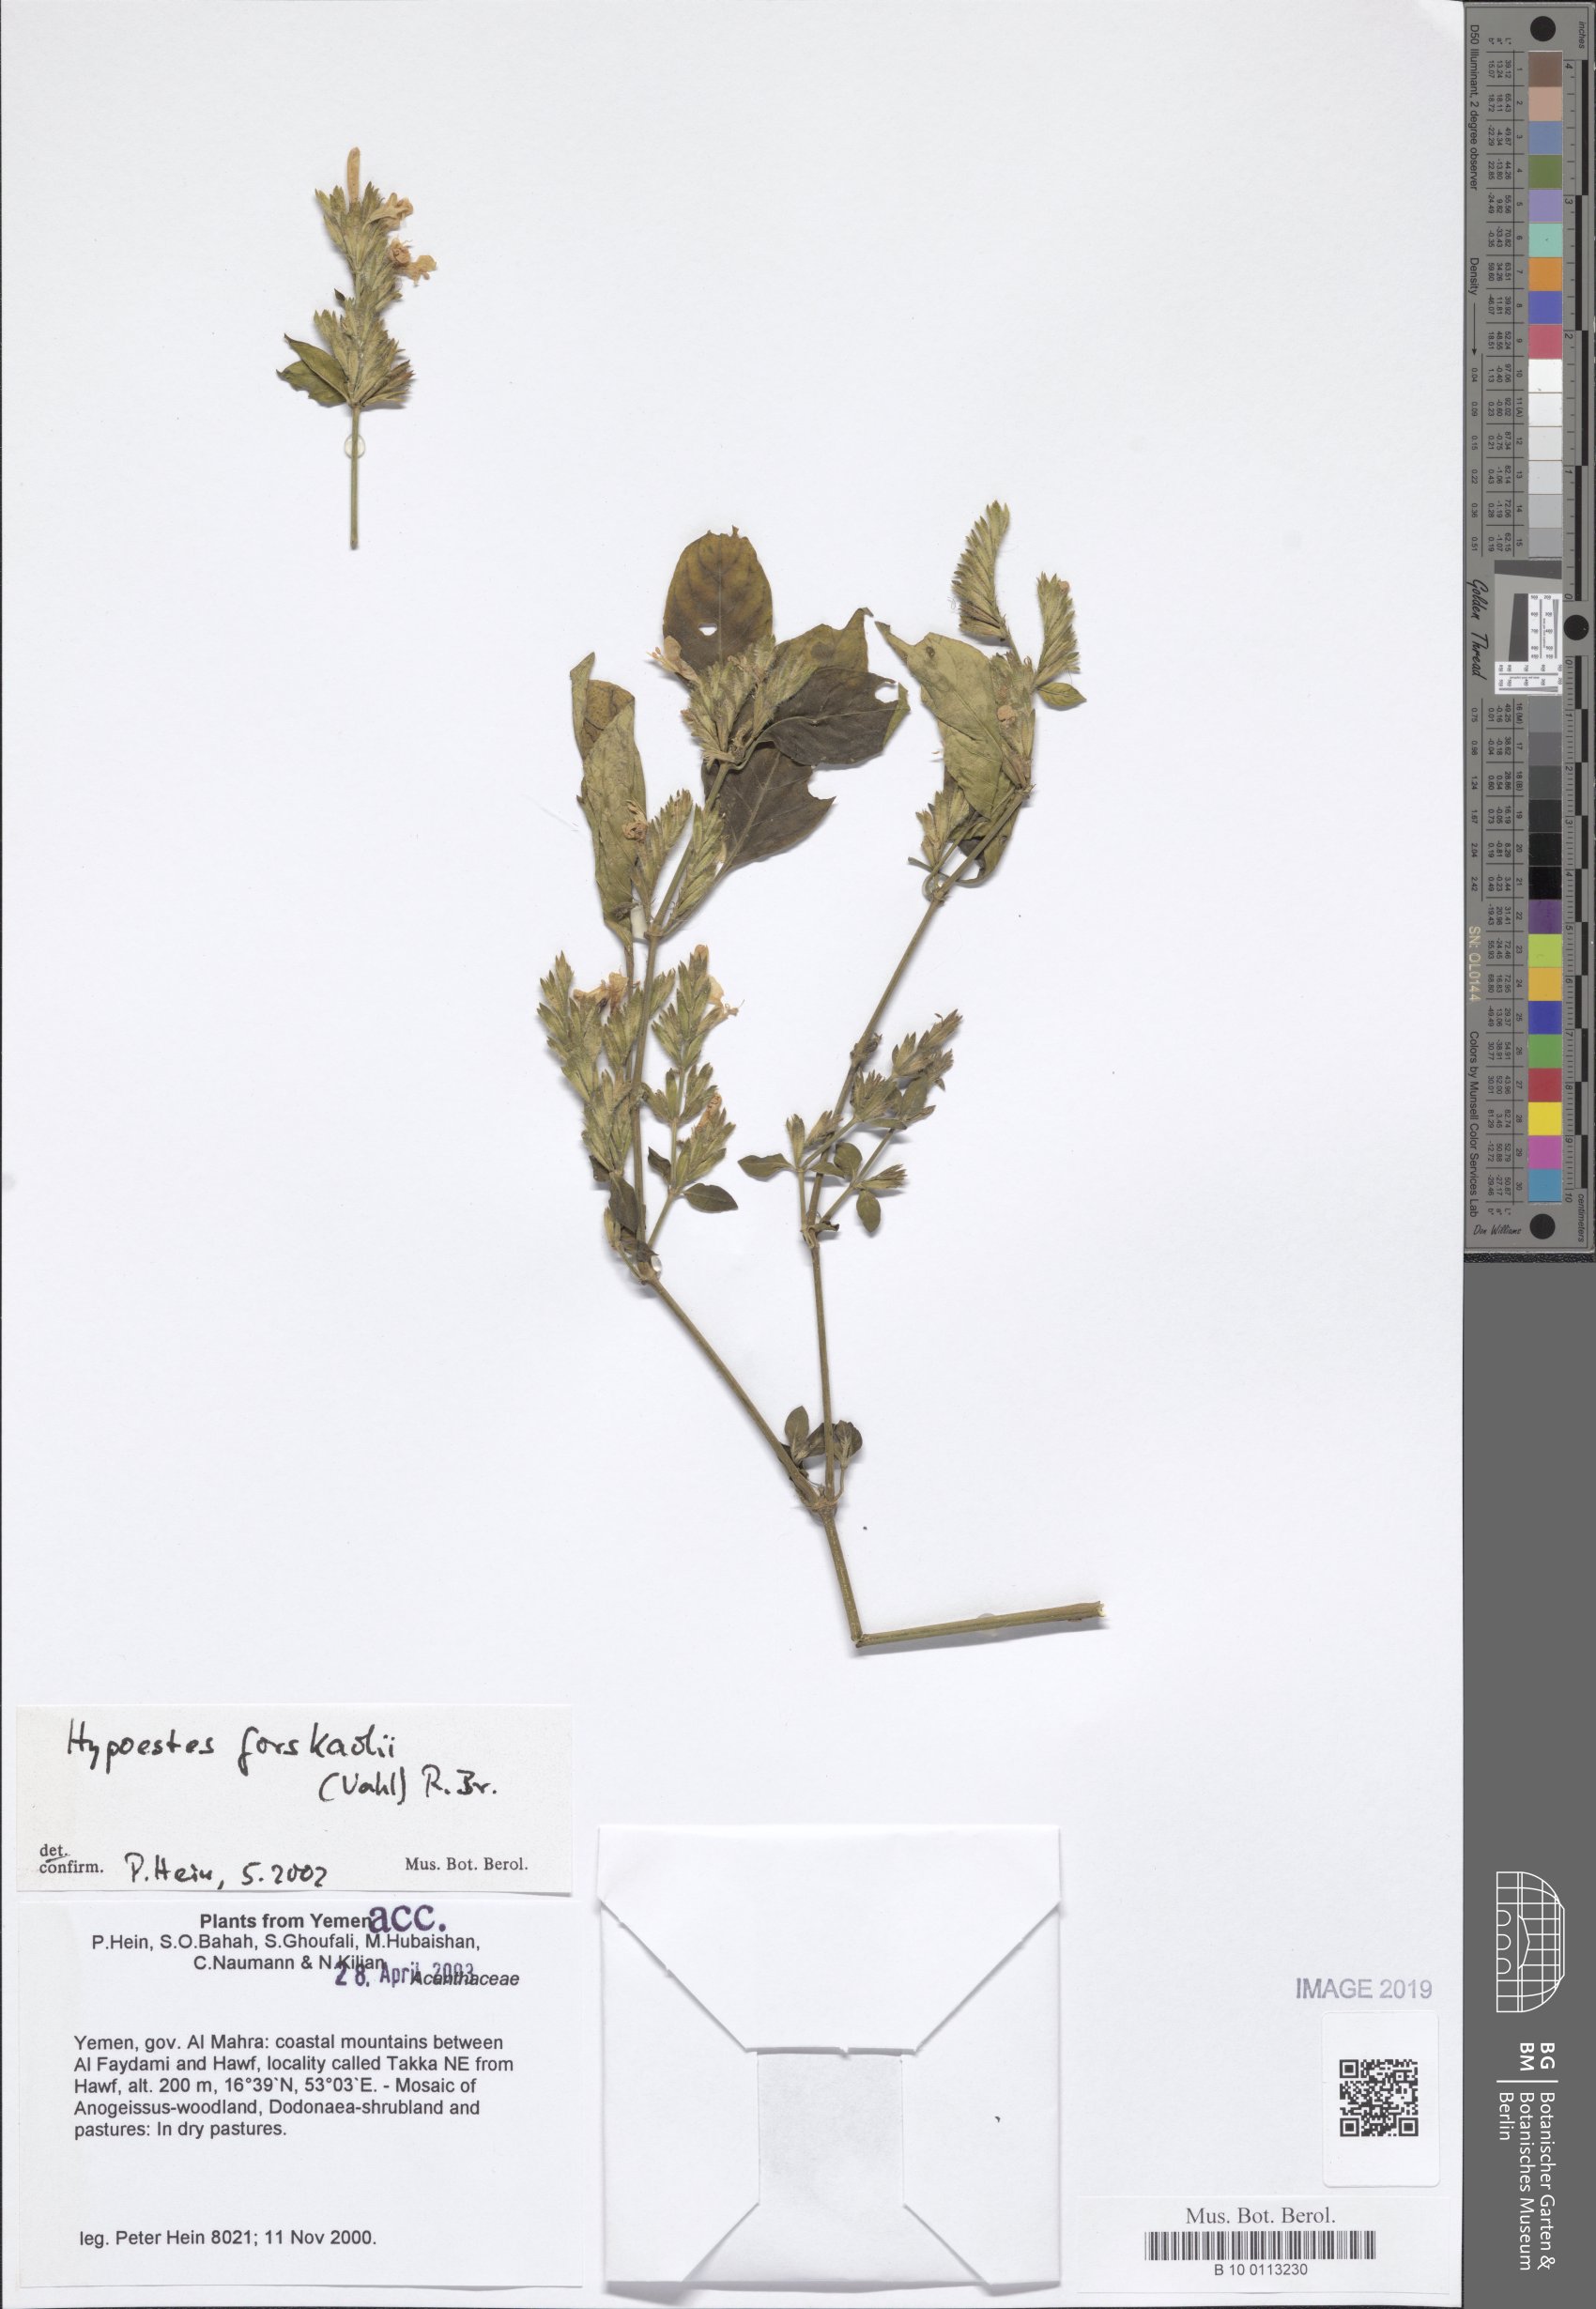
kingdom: Plantae
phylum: Tracheophyta
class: Magnoliopsida
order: Lamiales
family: Acanthaceae
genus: Hypoestes
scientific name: Hypoestes forskaolii
